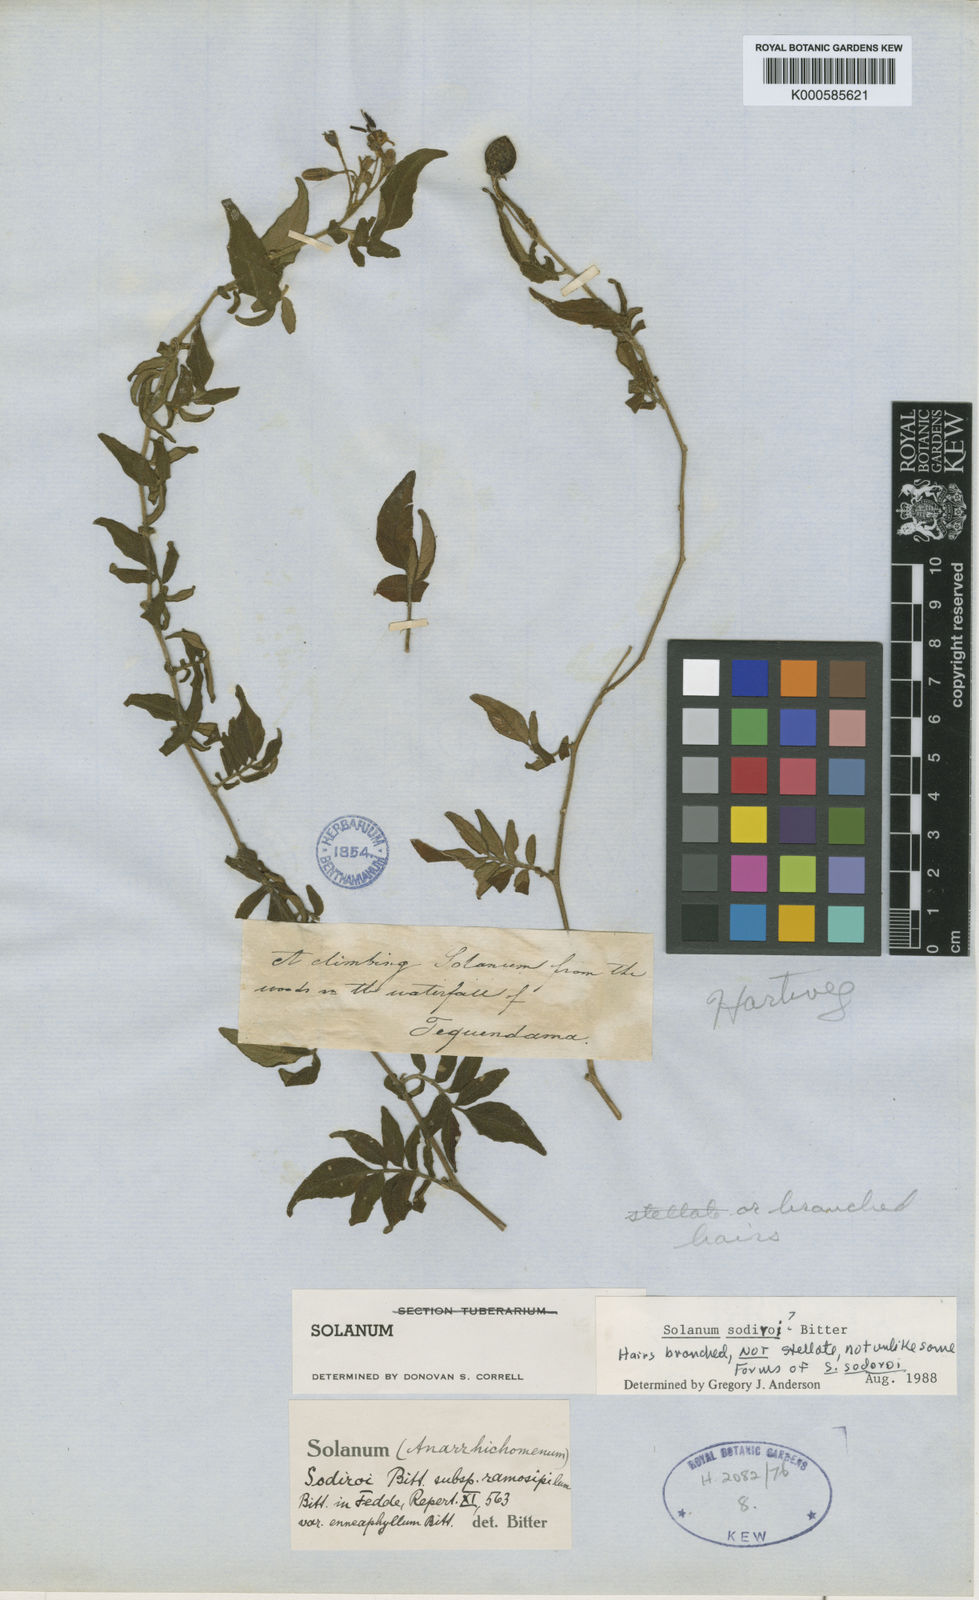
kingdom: Plantae
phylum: Tracheophyta
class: Magnoliopsida
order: Solanales
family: Solanaceae
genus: Solanum
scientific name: Solanum sodiroi
